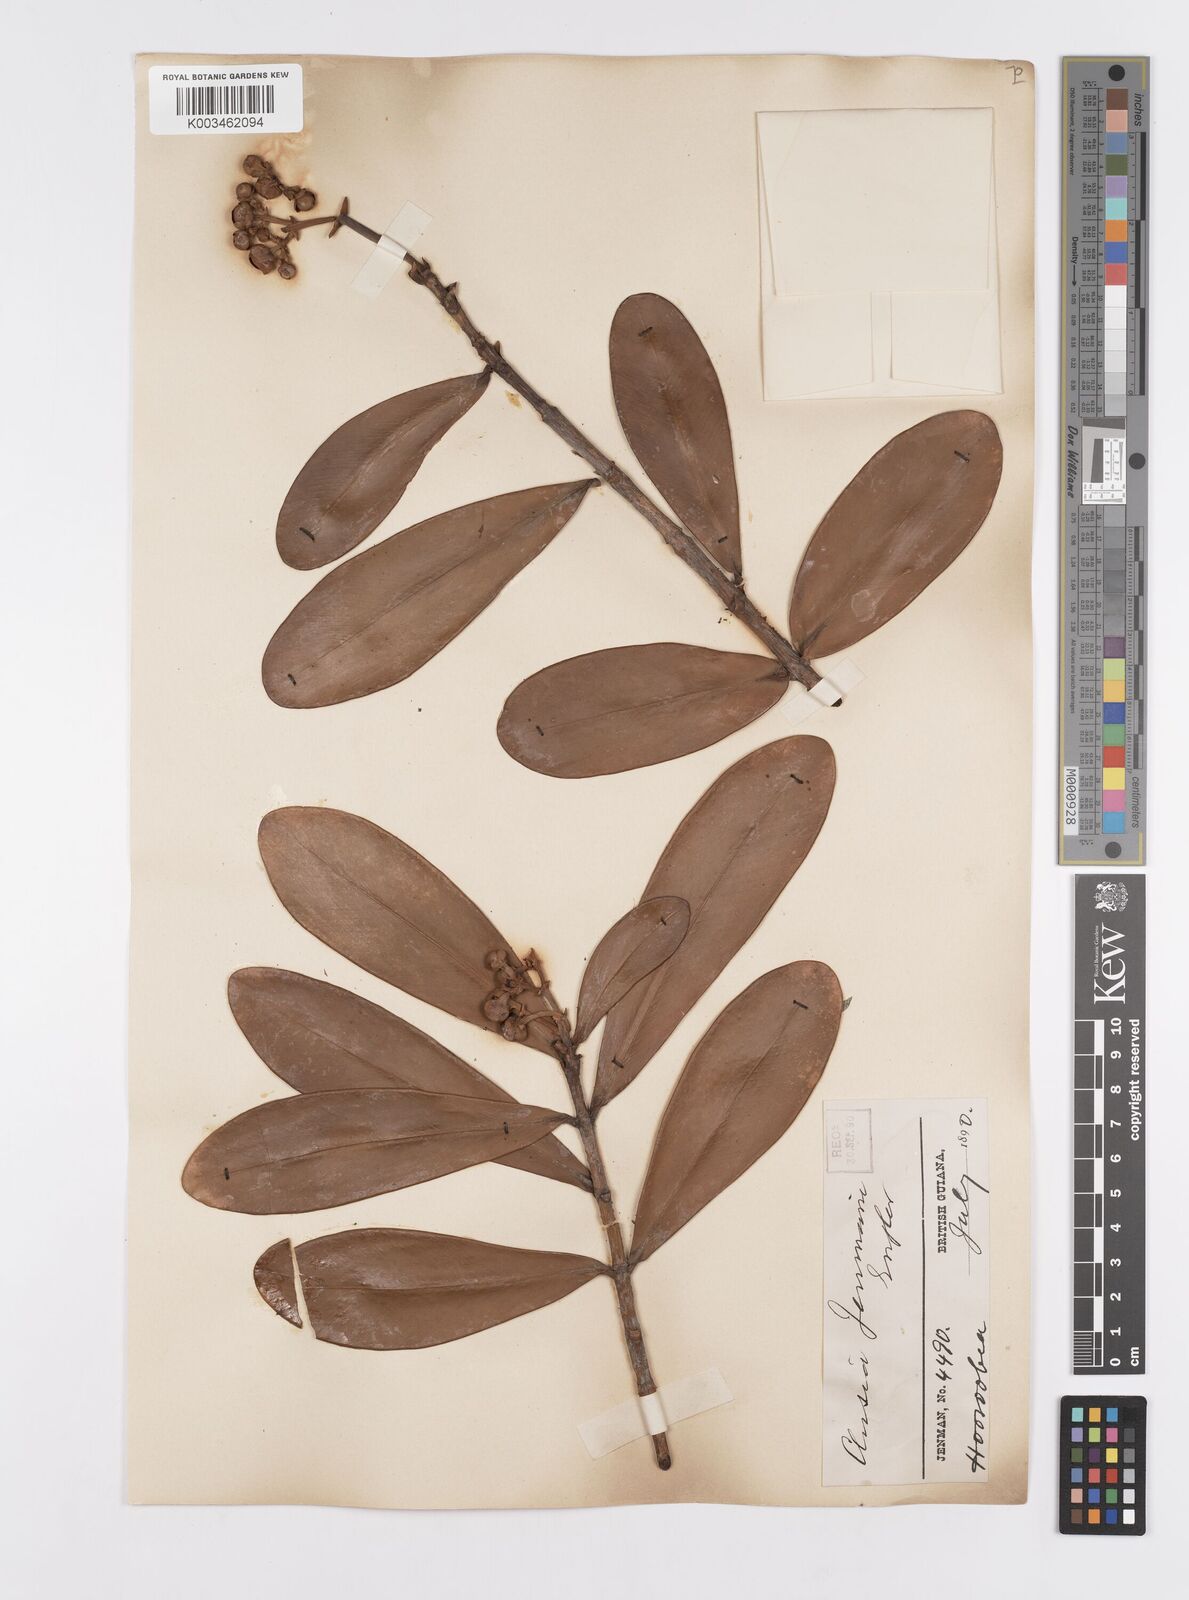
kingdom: Plantae
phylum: Tracheophyta
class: Magnoliopsida
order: Malpighiales
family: Clusiaceae
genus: Clusia
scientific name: Clusia myriandra
